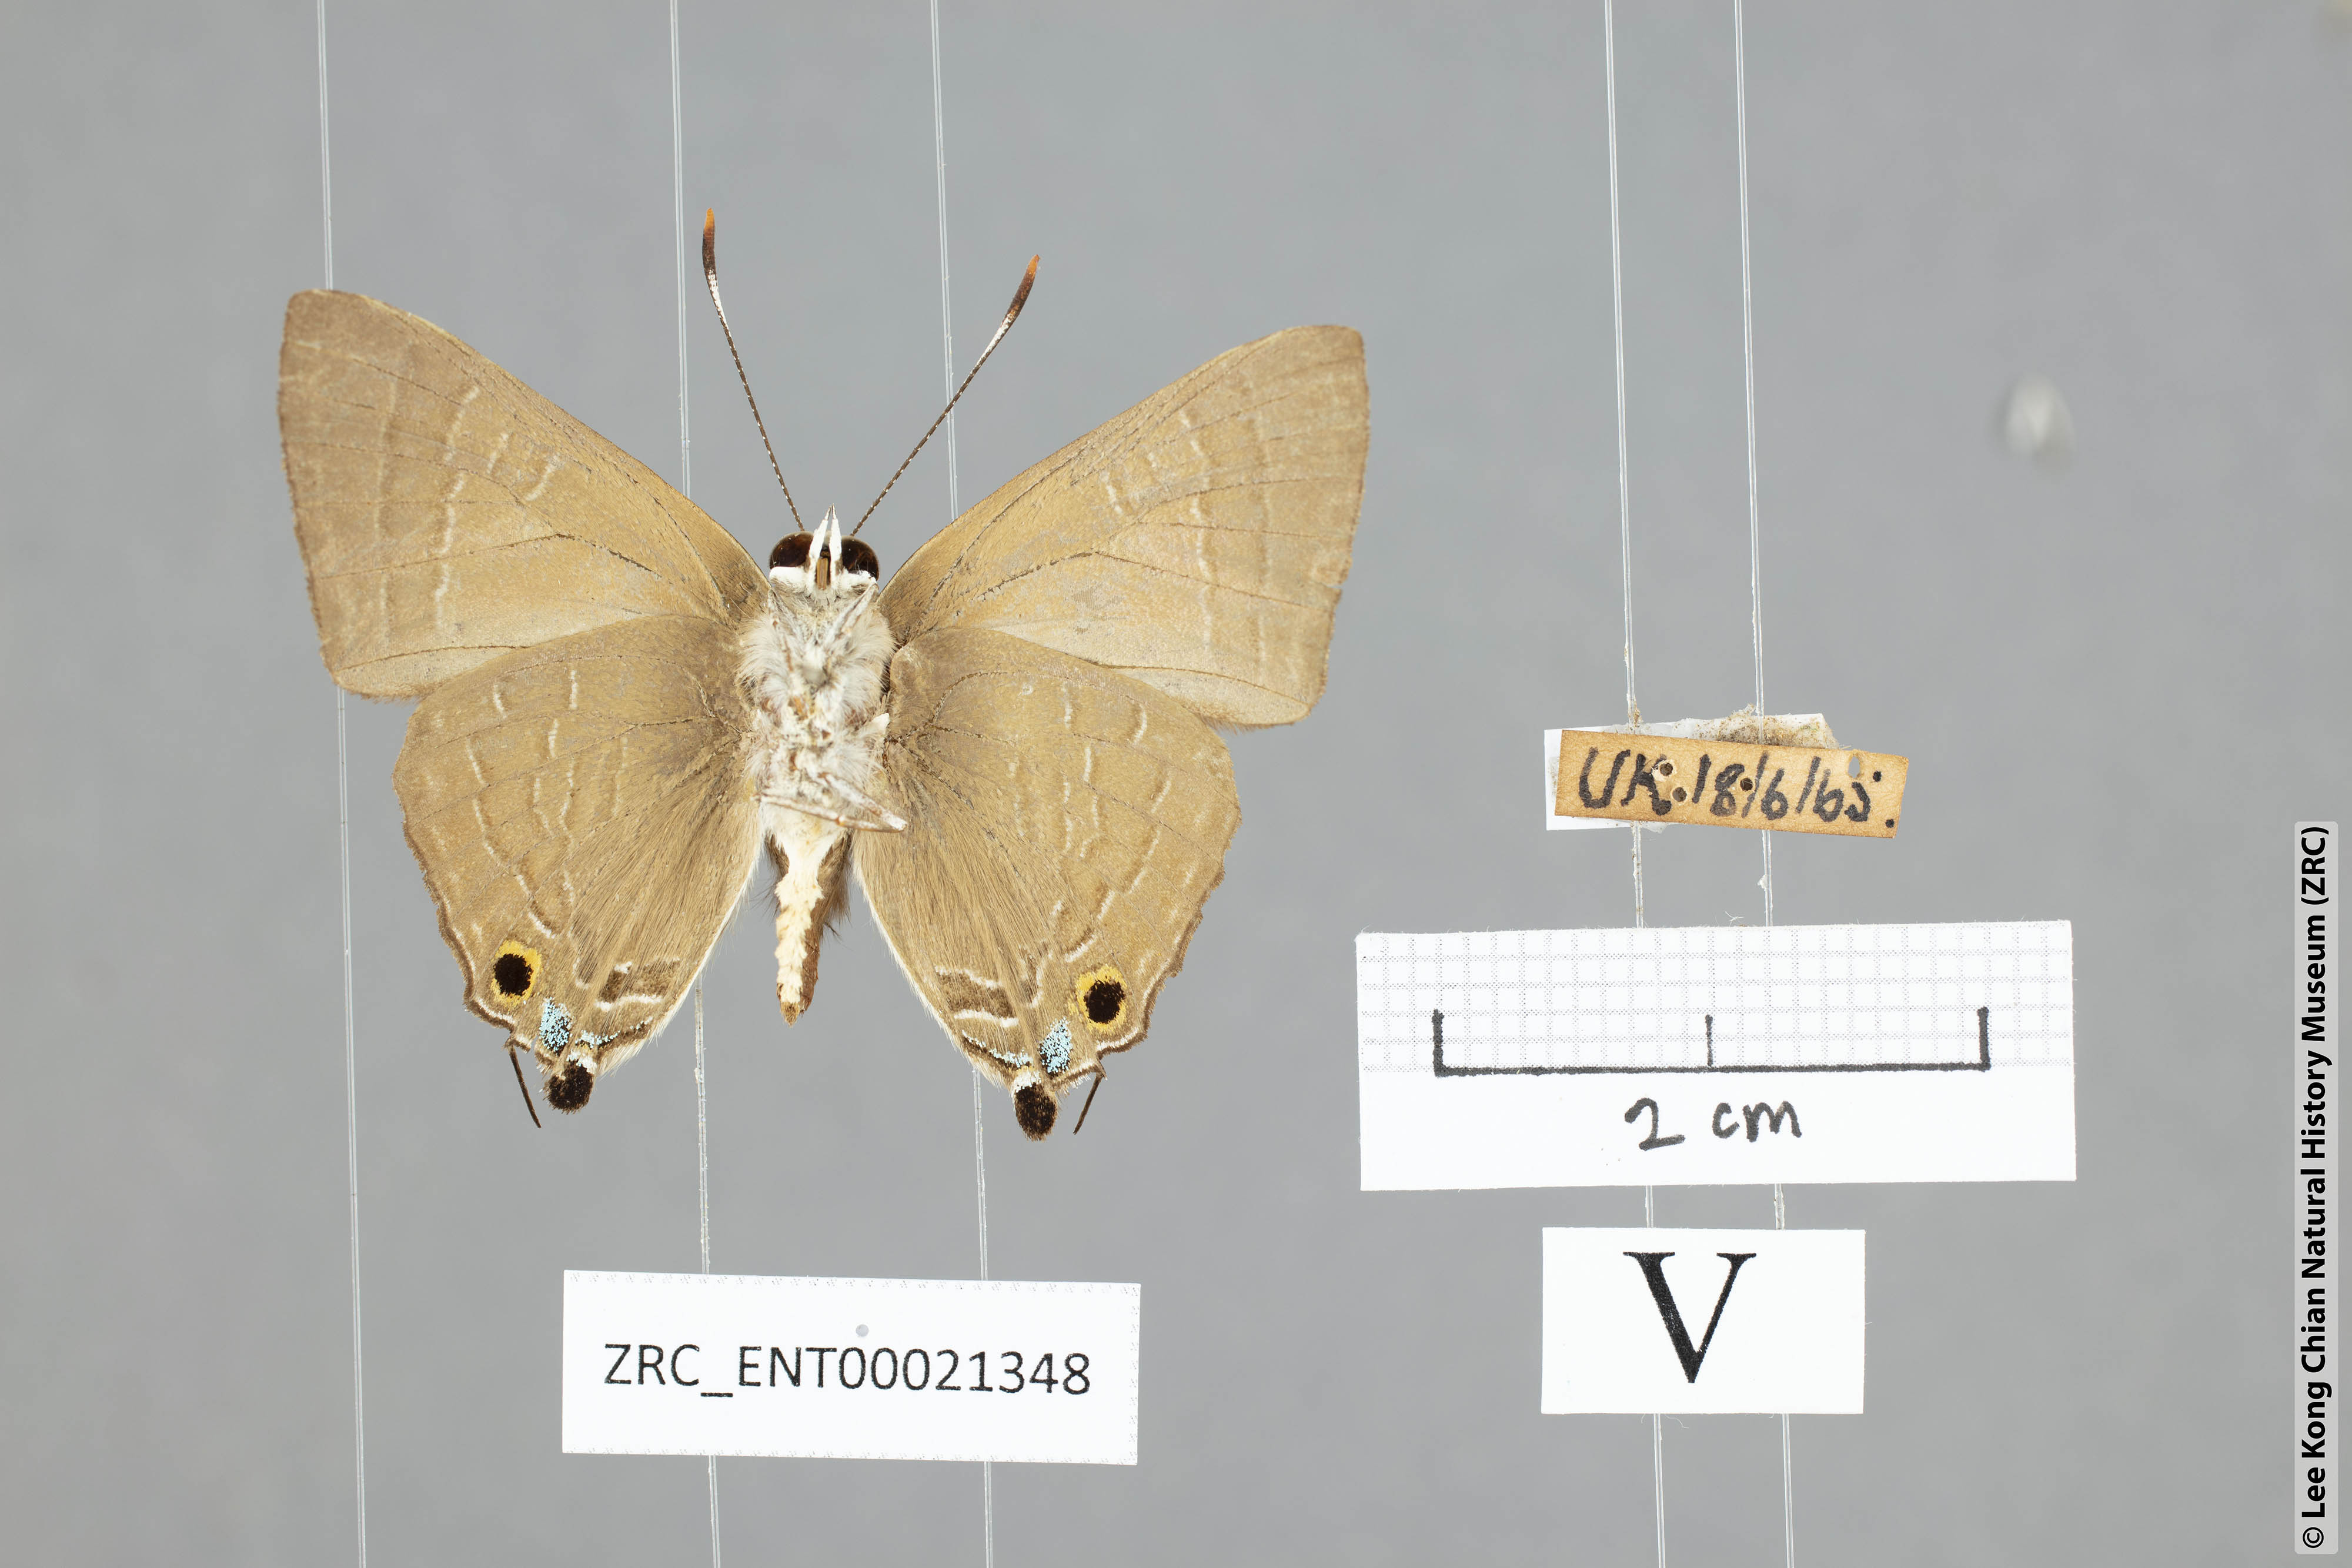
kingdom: Animalia
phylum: Arthropoda
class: Insecta
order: Lepidoptera
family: Lycaenidae
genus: Deudorix
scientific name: Deudorix staudingeri
